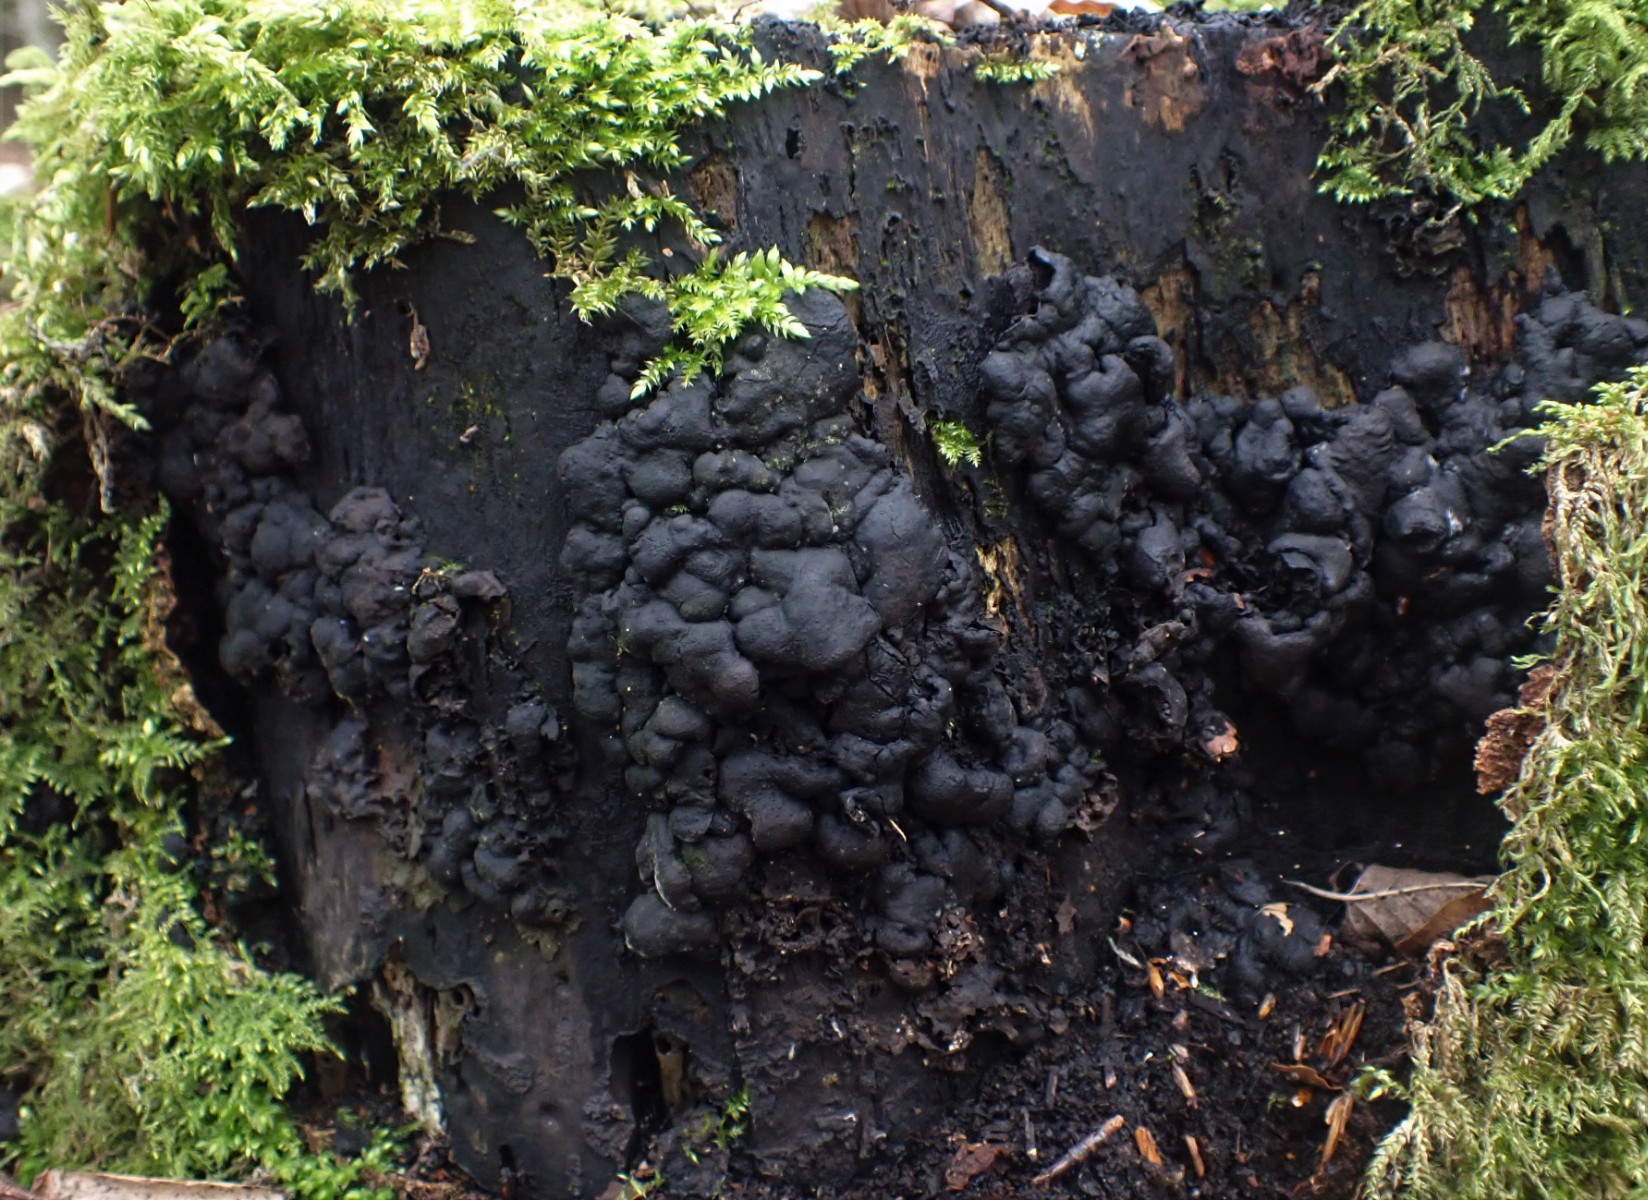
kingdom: Fungi
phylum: Ascomycota
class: Sordariomycetes
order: Xylariales
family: Xylariaceae
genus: Kretzschmaria
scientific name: Kretzschmaria deusta
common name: stor kulsvamp
